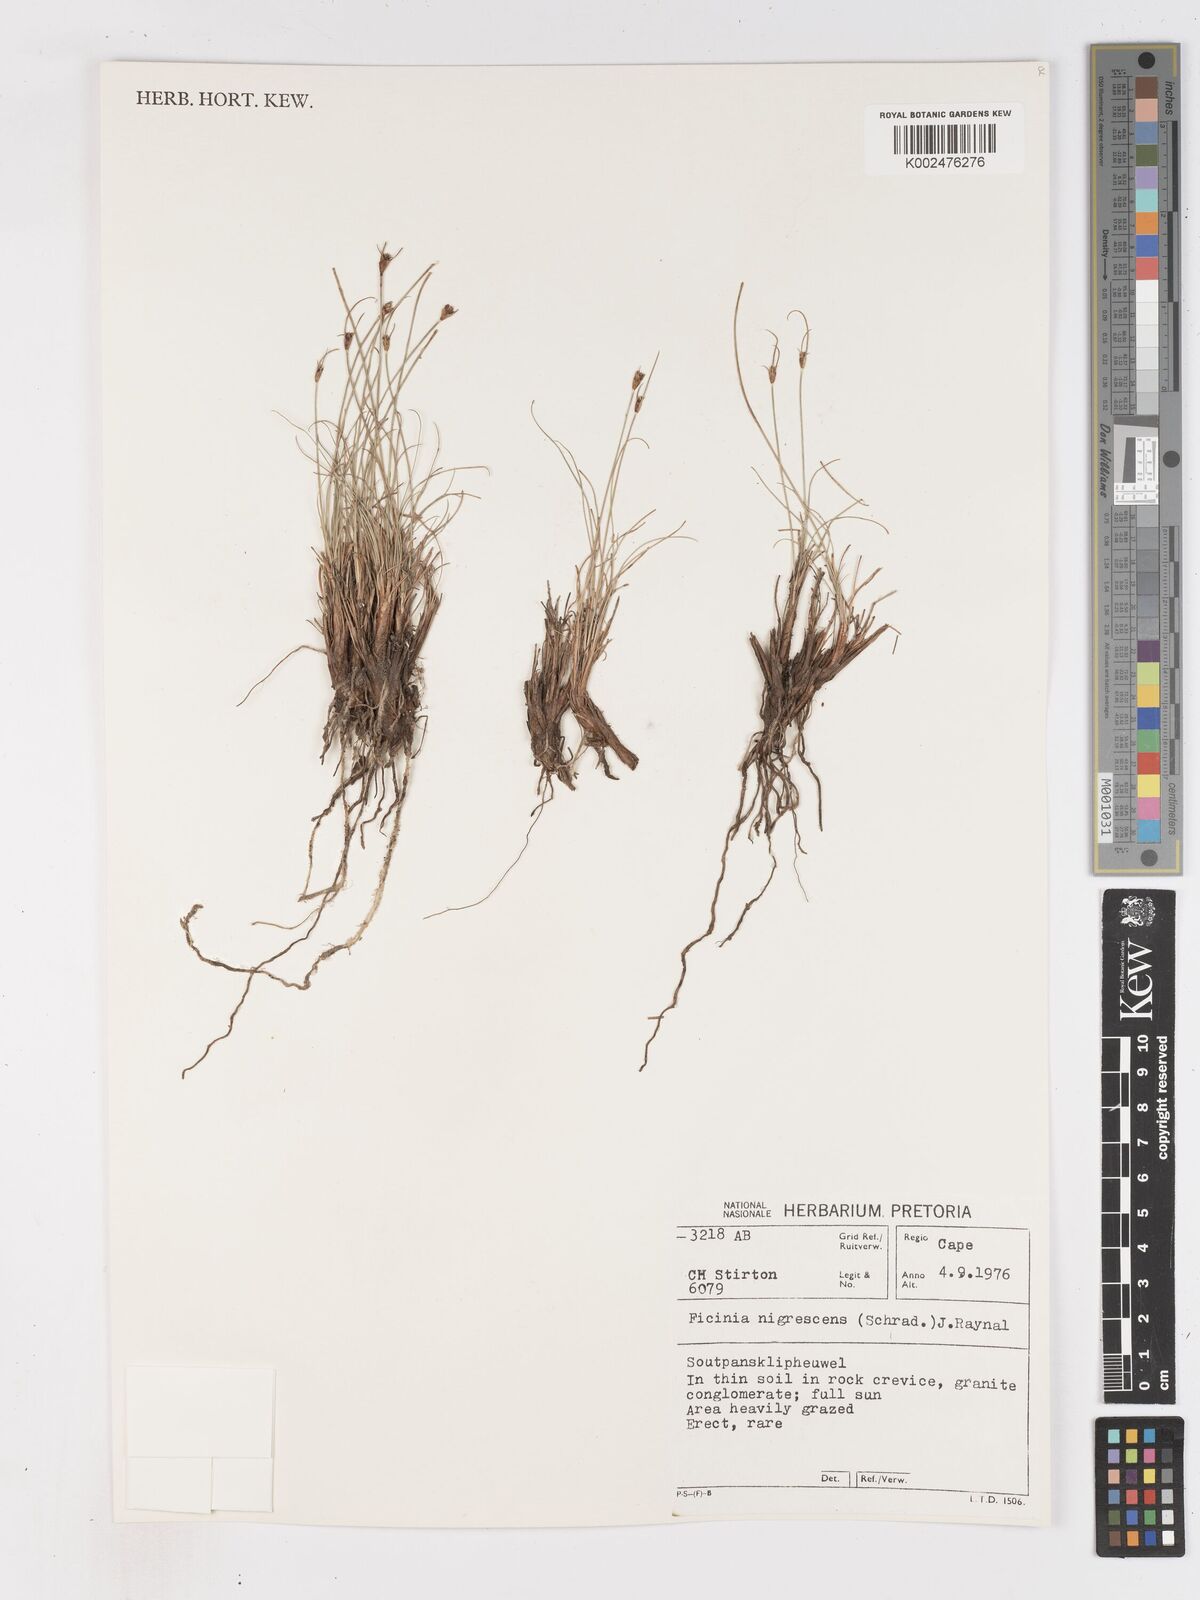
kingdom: Plantae
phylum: Tracheophyta
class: Liliopsida
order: Poales
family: Cyperaceae
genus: Ficinia
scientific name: Ficinia nigrescens
